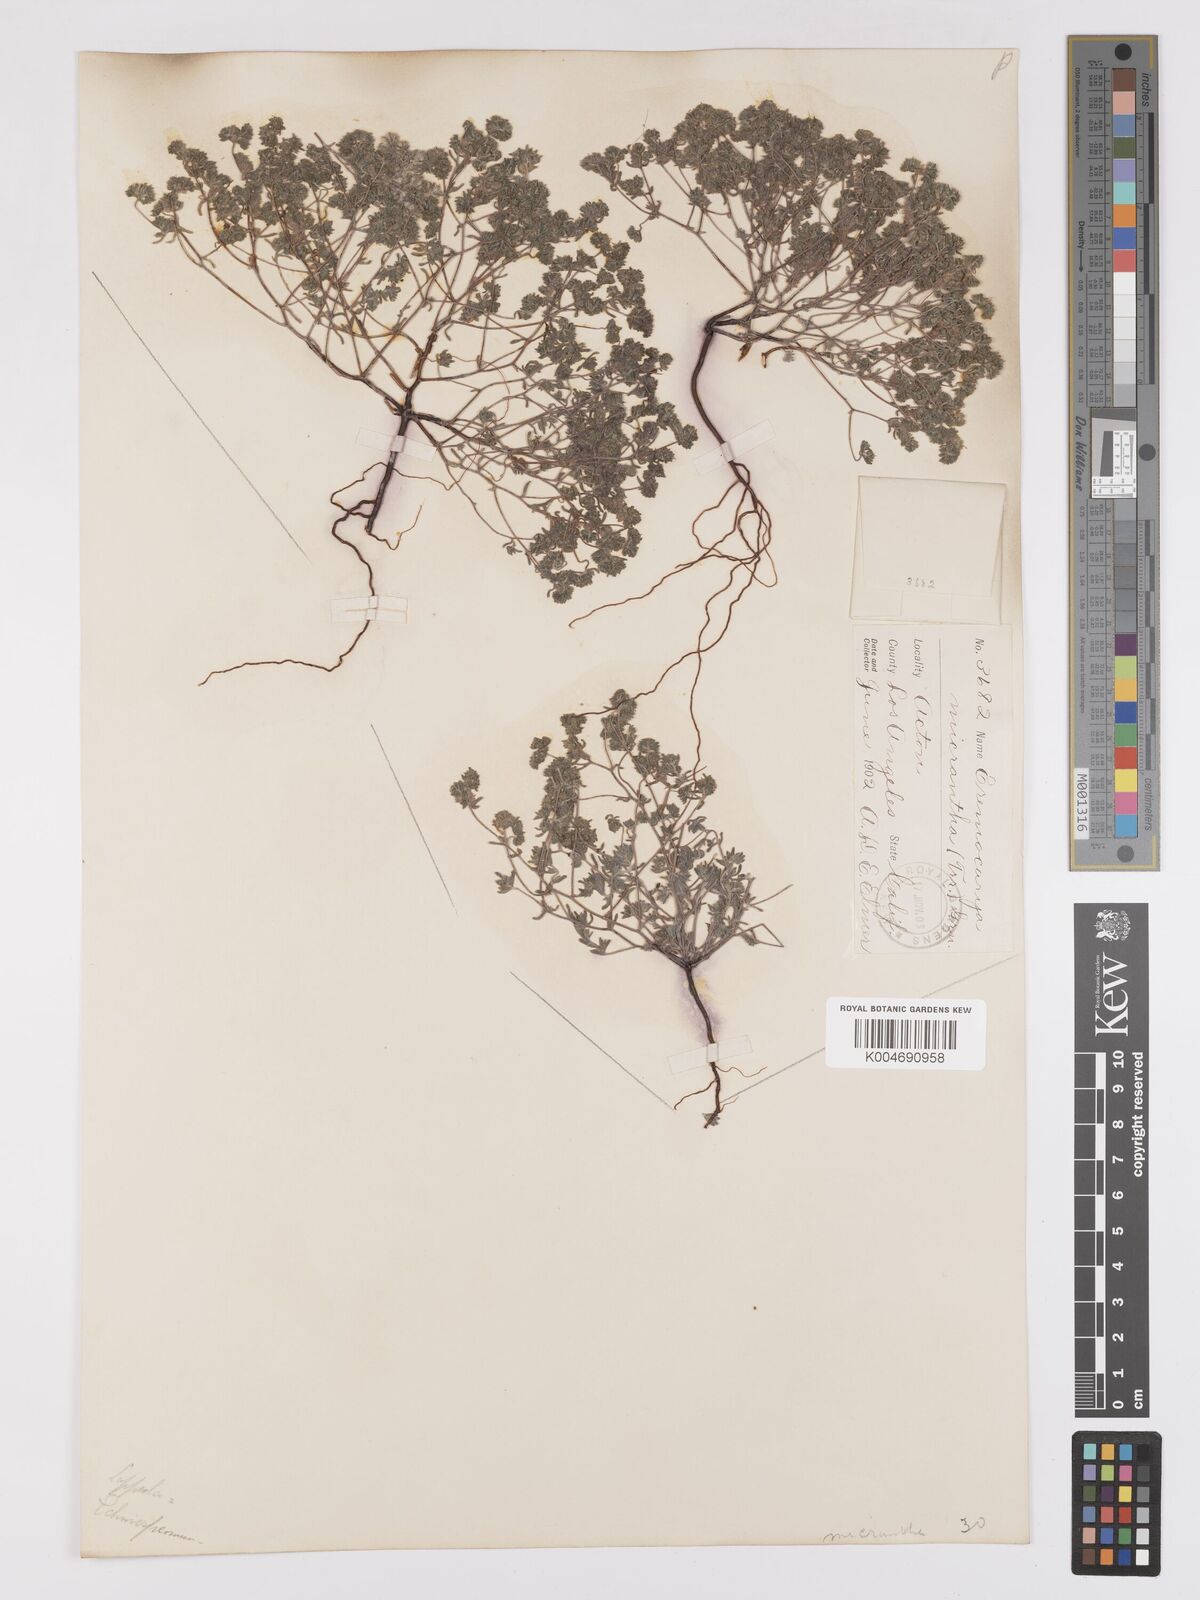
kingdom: Plantae
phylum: Tracheophyta
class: Magnoliopsida
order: Boraginales
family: Boraginaceae
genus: Eremocarya
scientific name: Eremocarya micrantha
